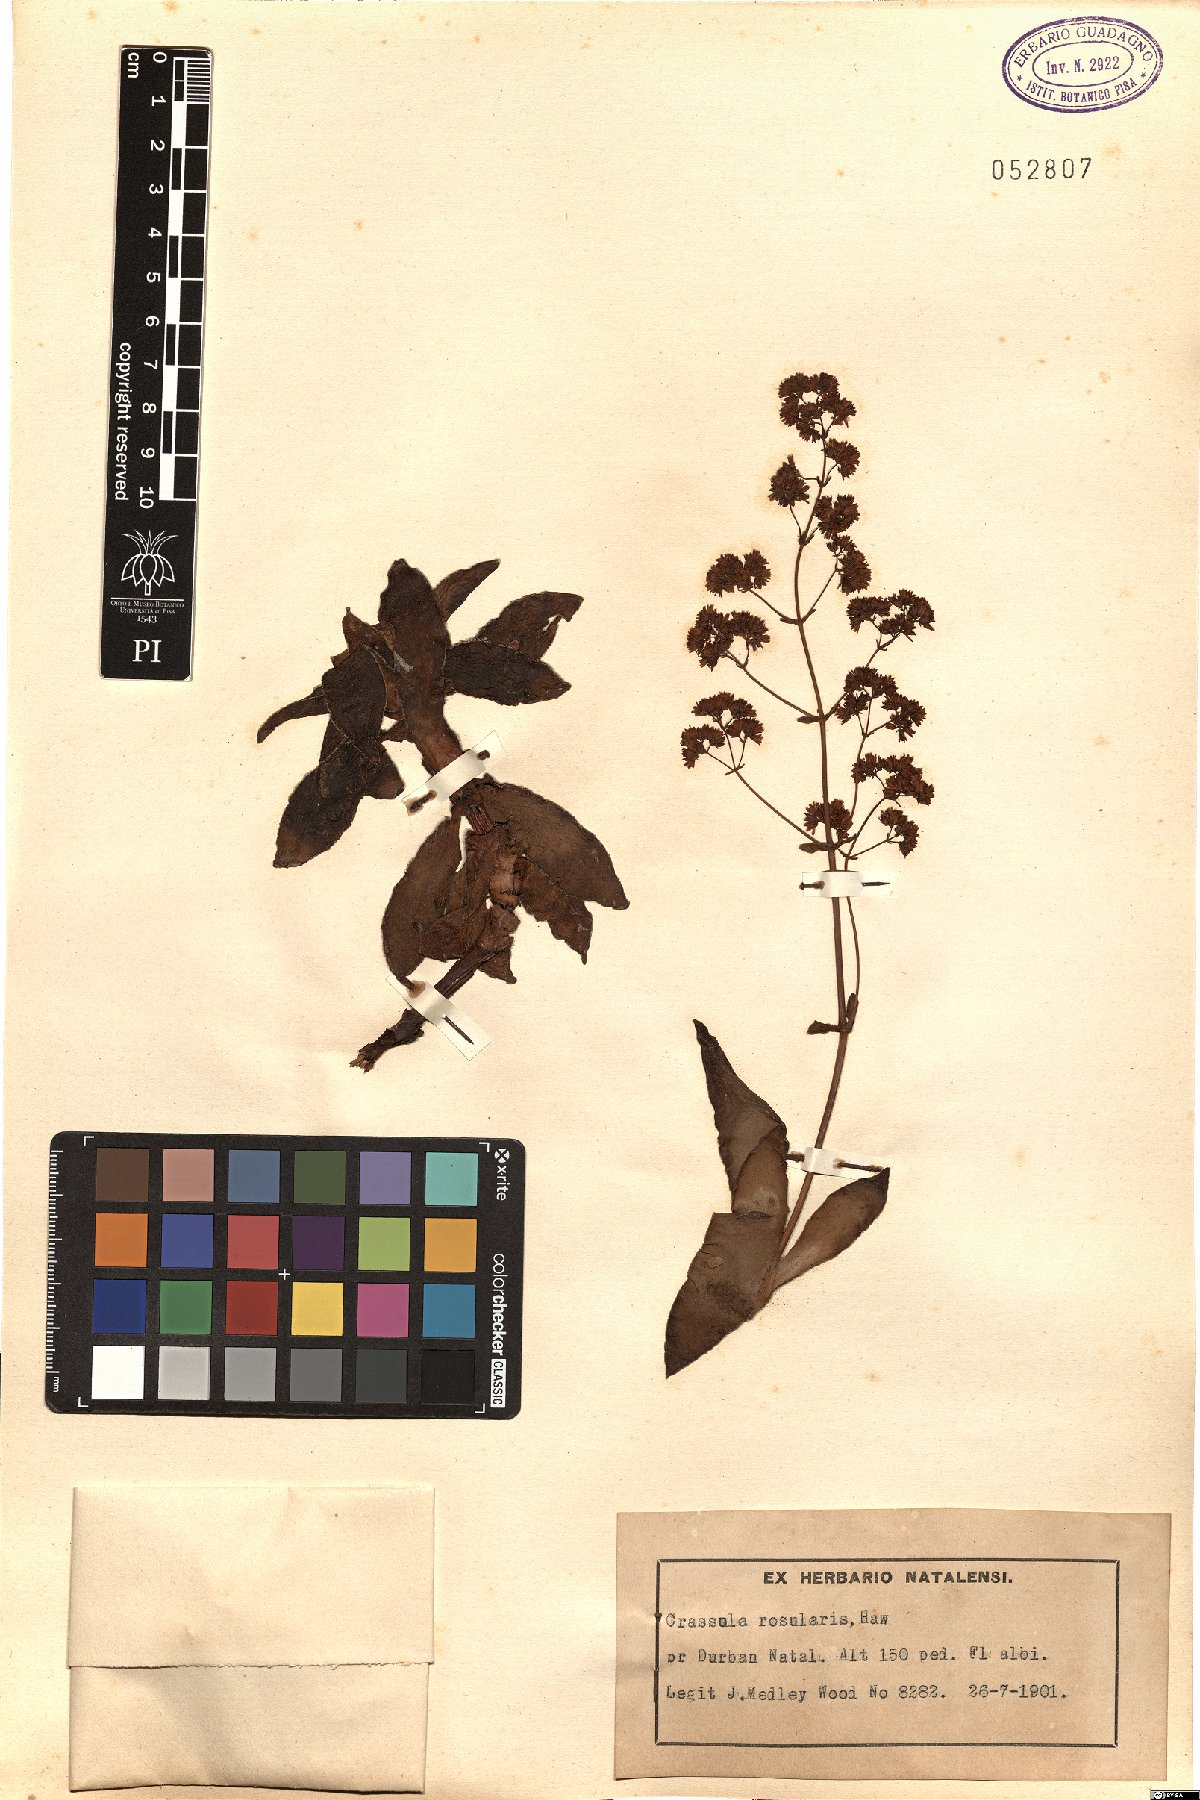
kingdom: Plantae
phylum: Tracheophyta
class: Magnoliopsida
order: Saxifragales
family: Crassulaceae
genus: Crassula
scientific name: Crassula orbicularis
